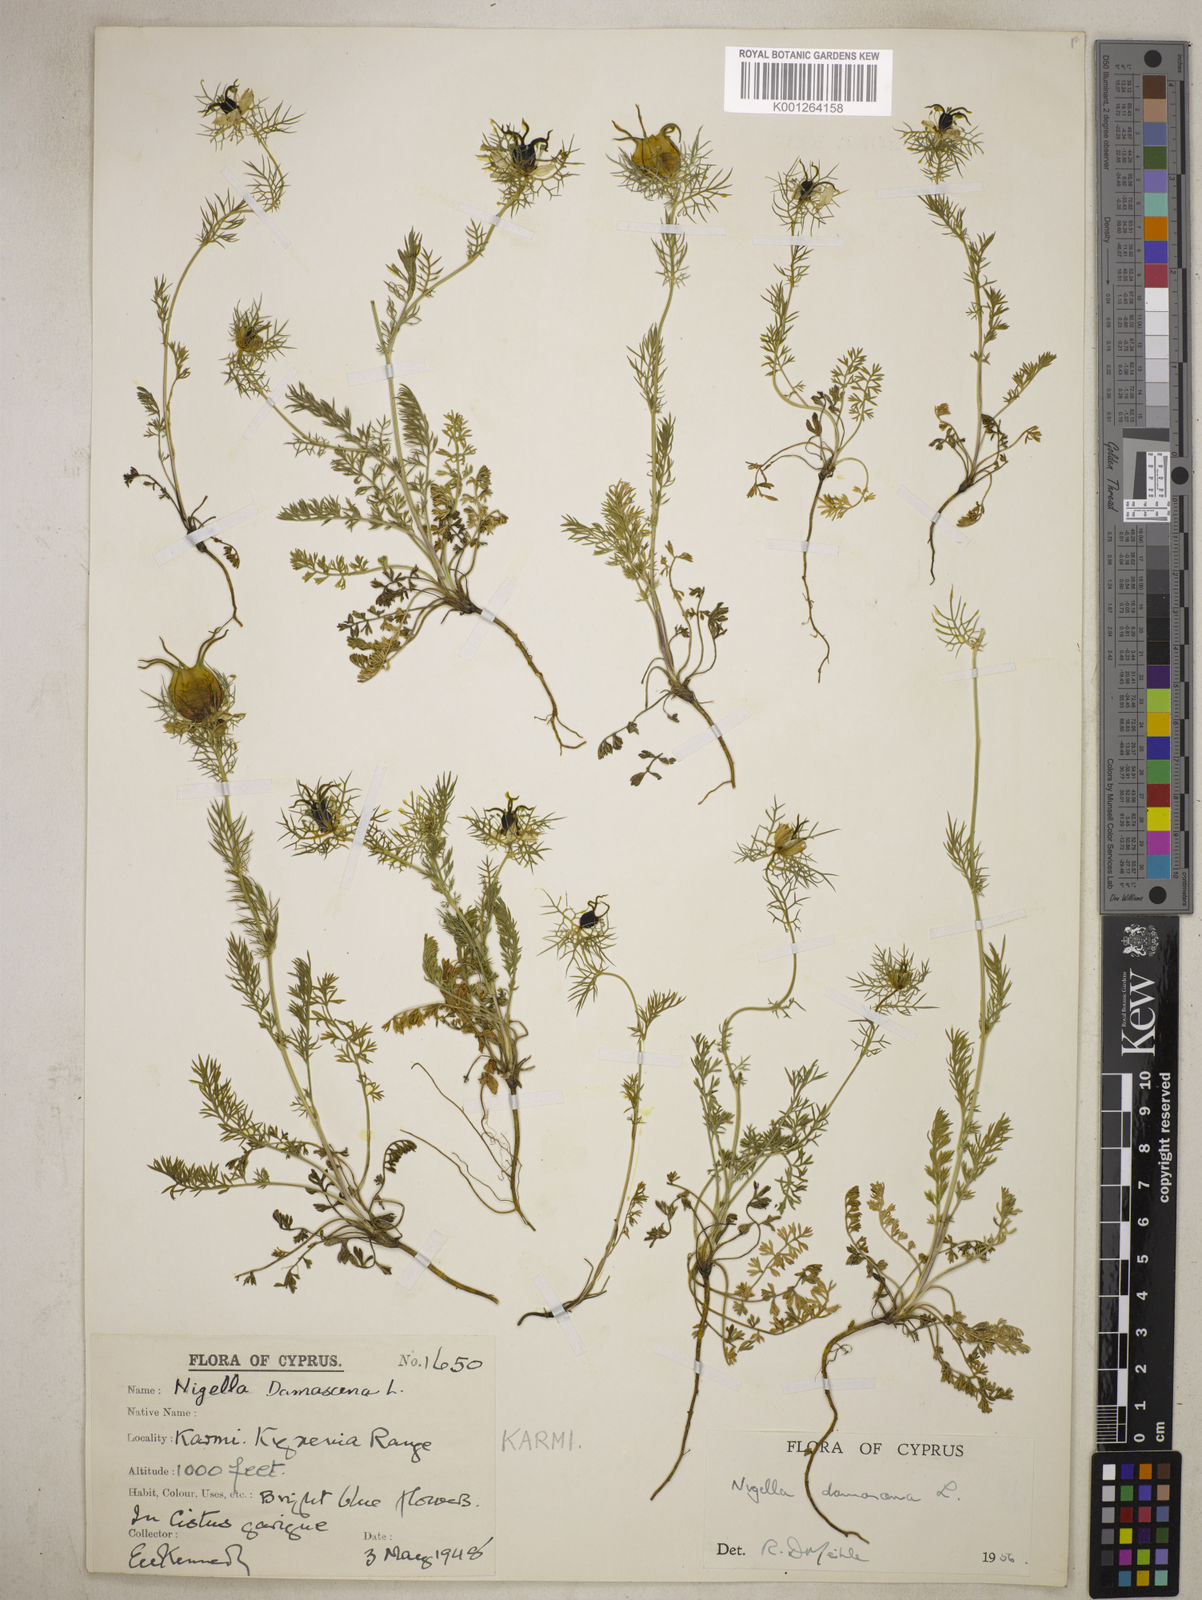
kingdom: Plantae
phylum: Tracheophyta
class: Magnoliopsida
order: Ranunculales
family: Ranunculaceae
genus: Nigella
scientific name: Nigella damascena
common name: Love-in-a-mist
